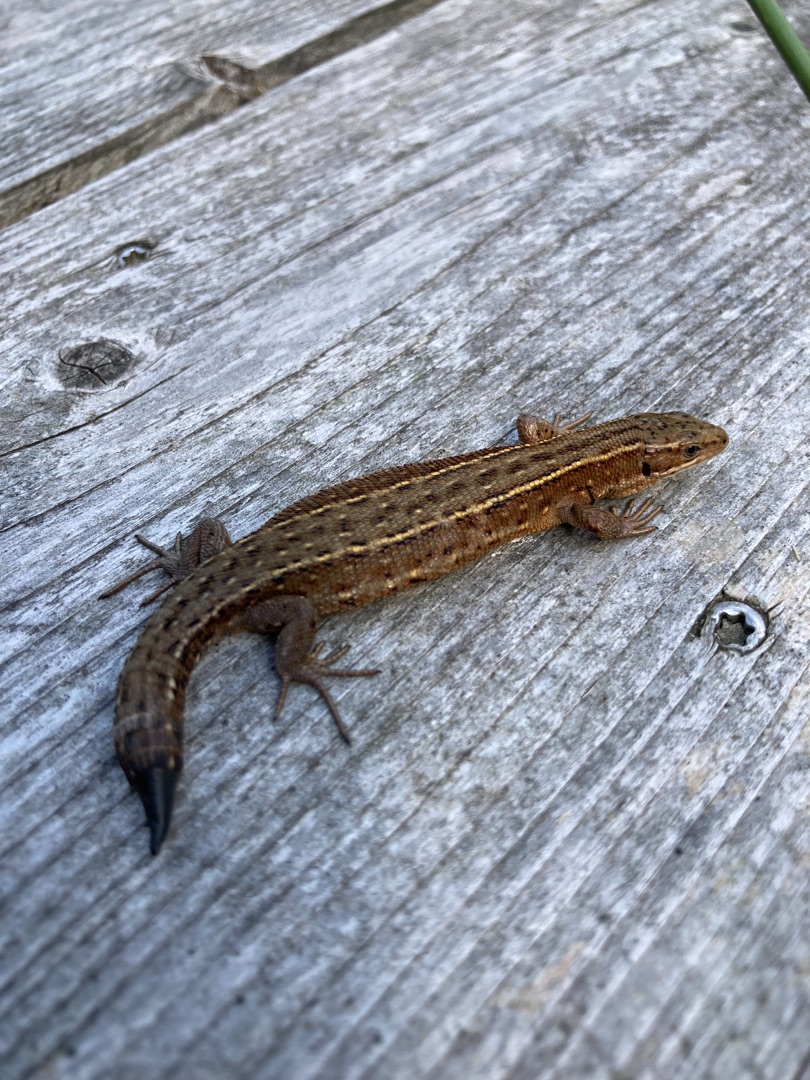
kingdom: Animalia
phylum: Chordata
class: Squamata
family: Lacertidae
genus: Zootoca
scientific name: Zootoca vivipara
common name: Skovfirben
